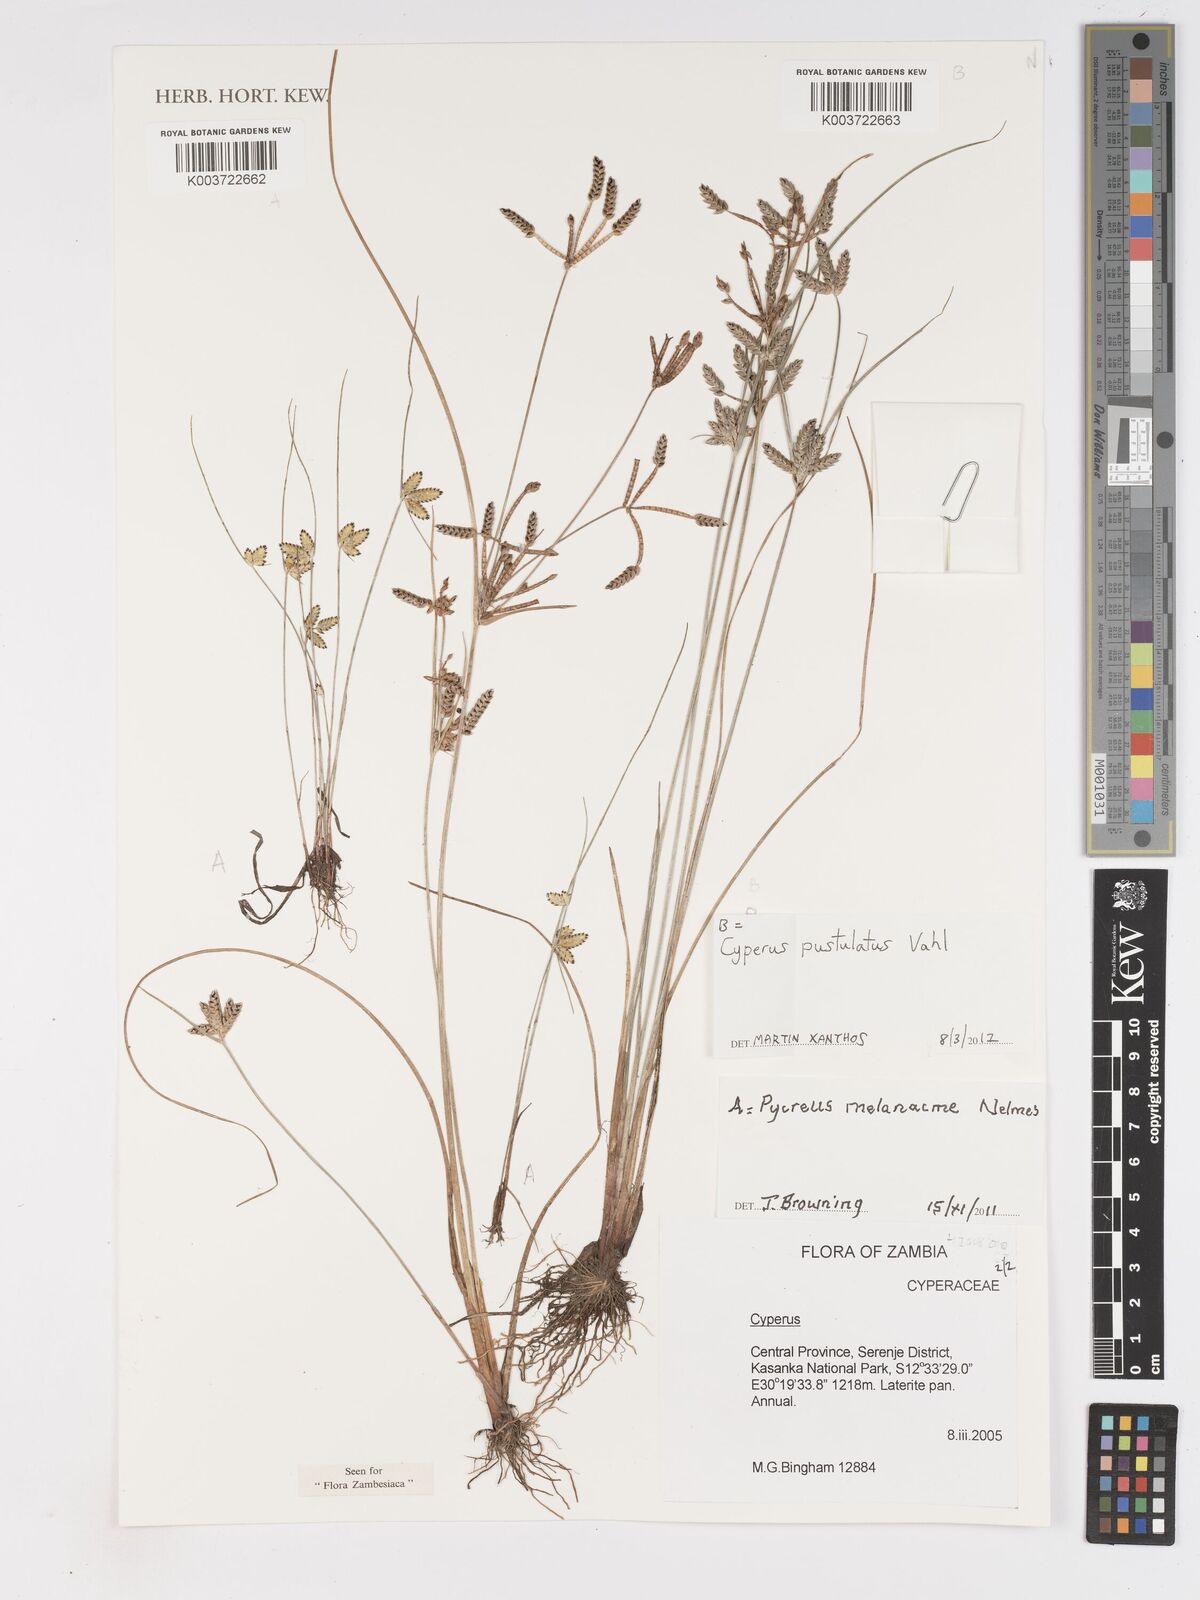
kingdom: Plantae
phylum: Tracheophyta
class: Liliopsida
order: Poales
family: Cyperaceae
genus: Cyperus
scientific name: Cyperus pustulatus
